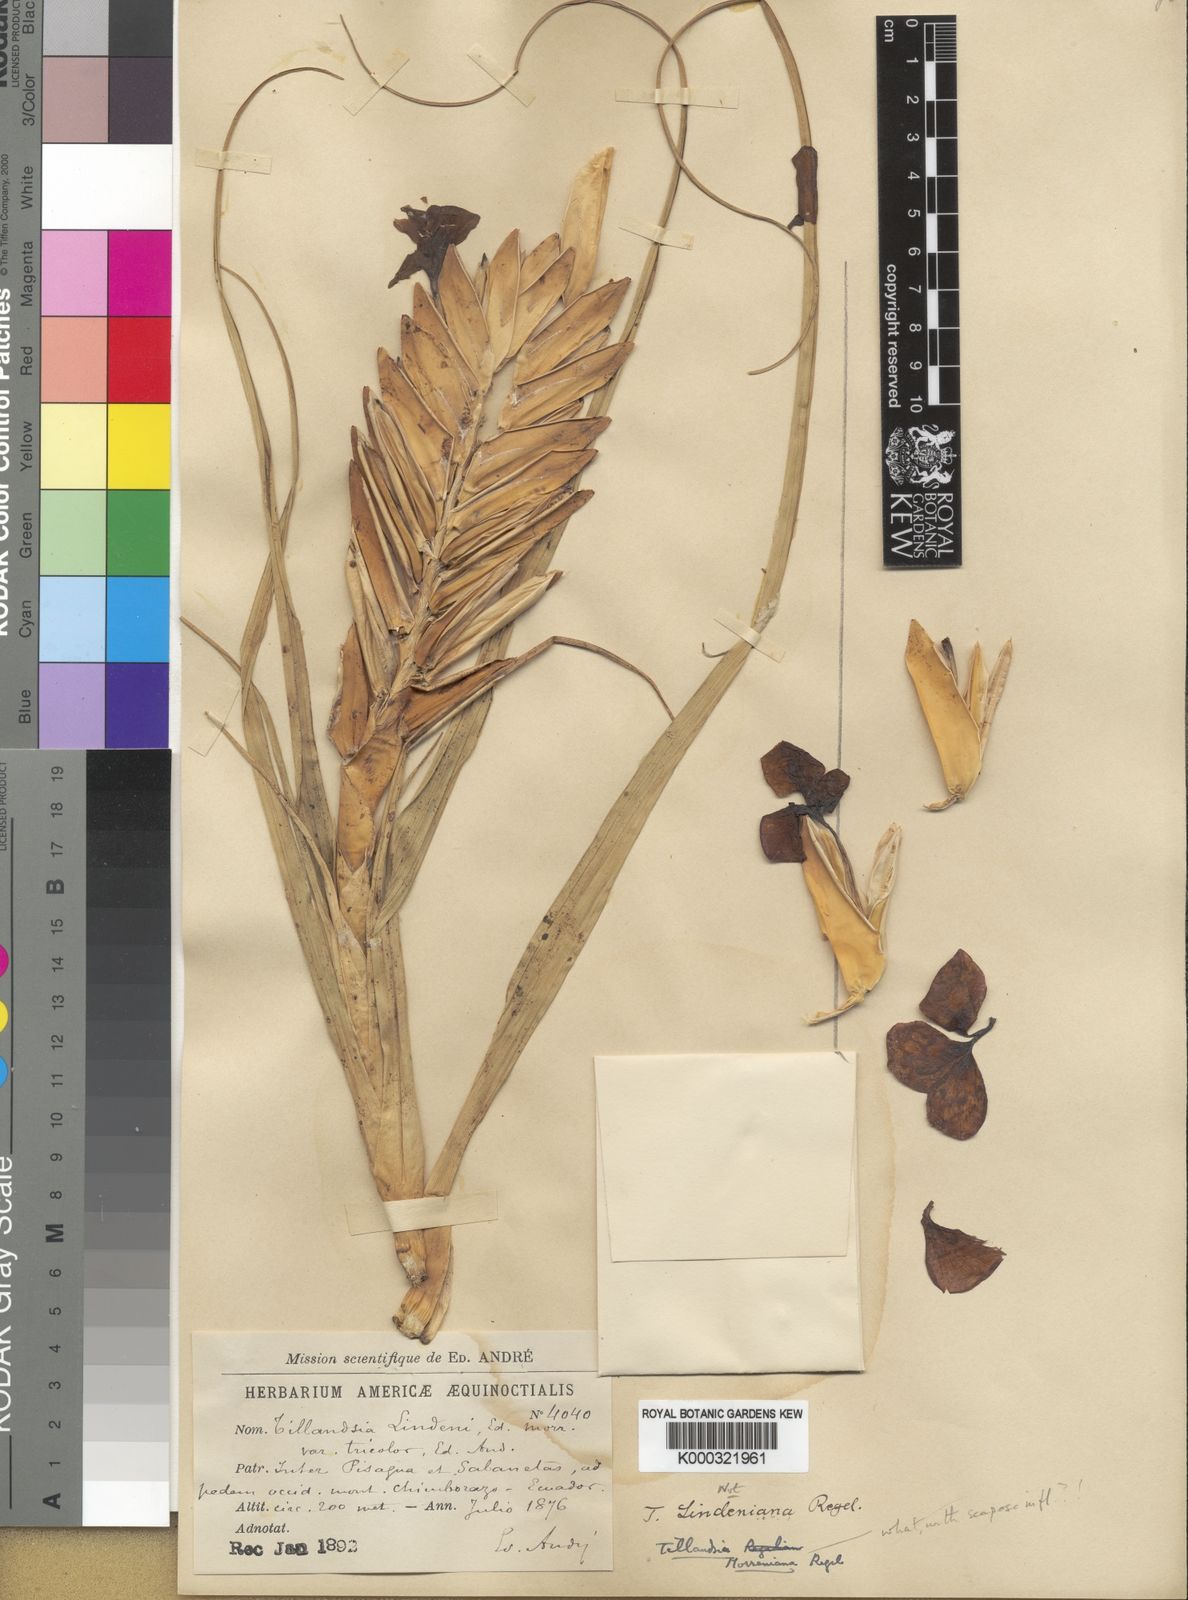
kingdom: Plantae
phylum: Tracheophyta
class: Liliopsida
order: Poales
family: Bromeliaceae
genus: Tillandsia
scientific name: Tillandsia
